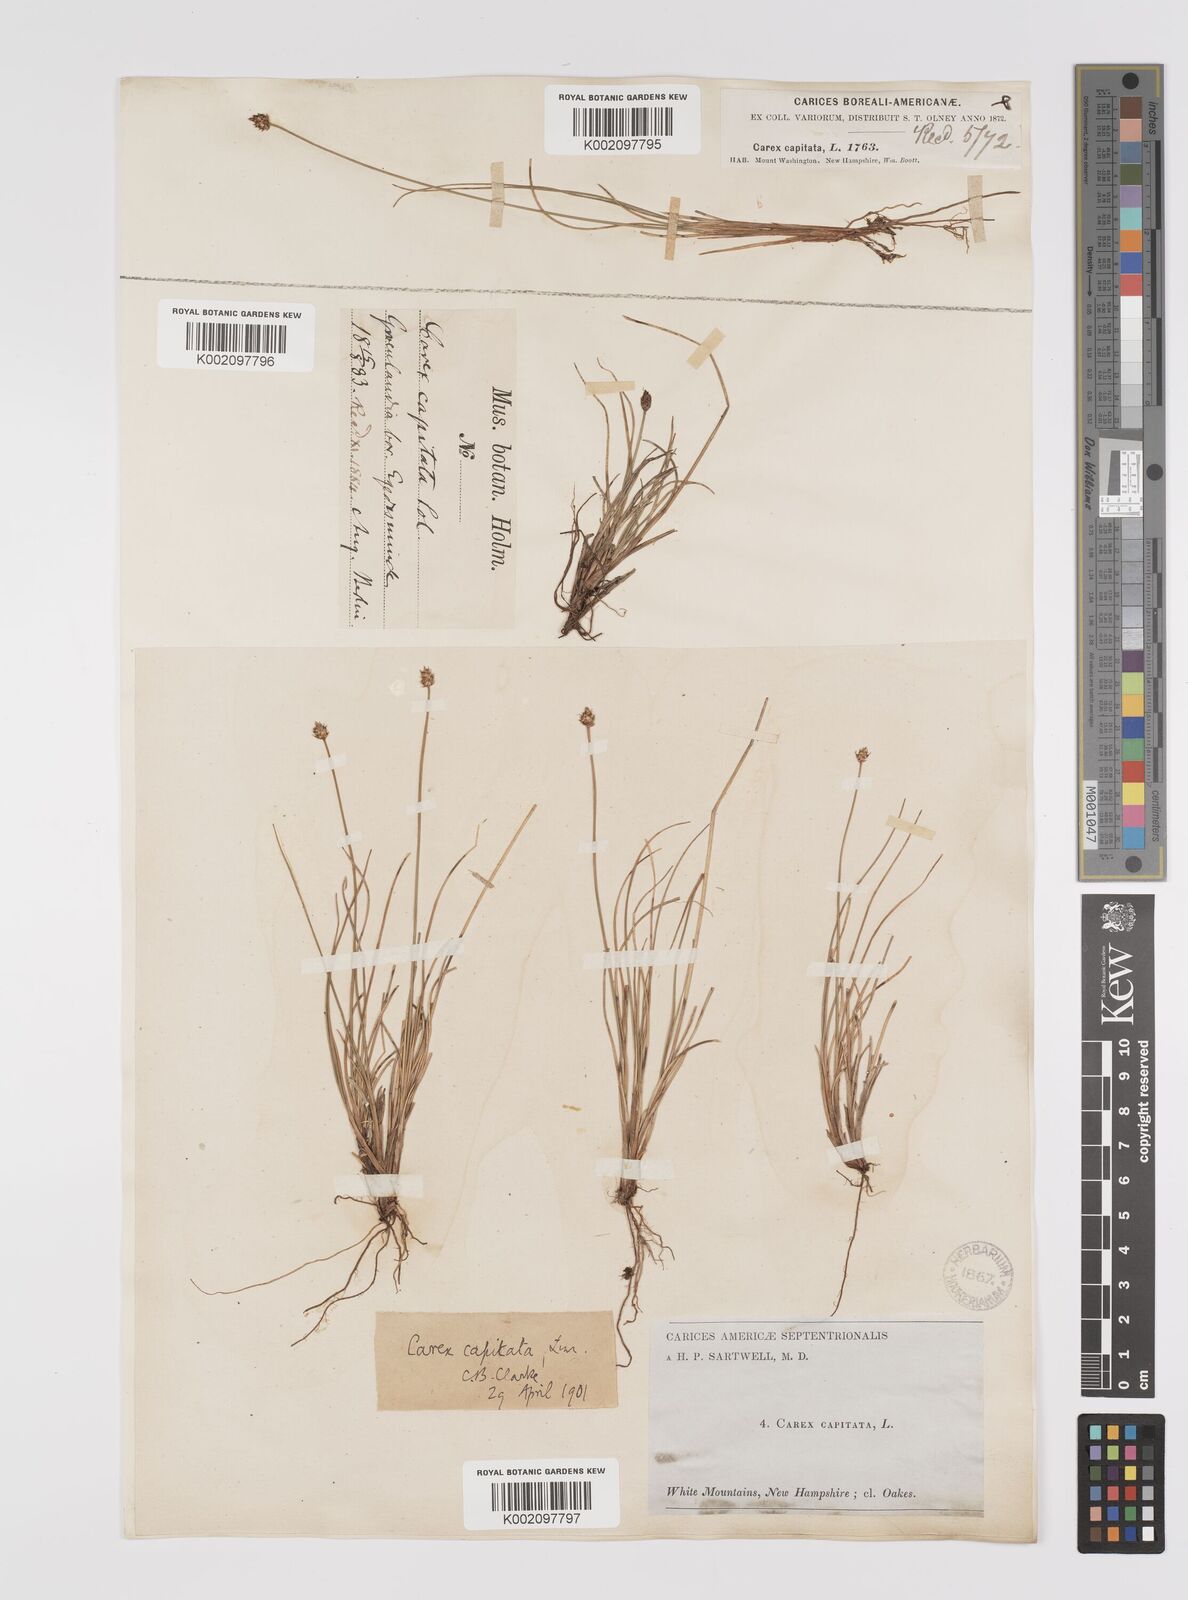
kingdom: Plantae
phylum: Tracheophyta
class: Liliopsida
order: Poales
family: Cyperaceae
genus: Carex
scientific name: Carex capitata
